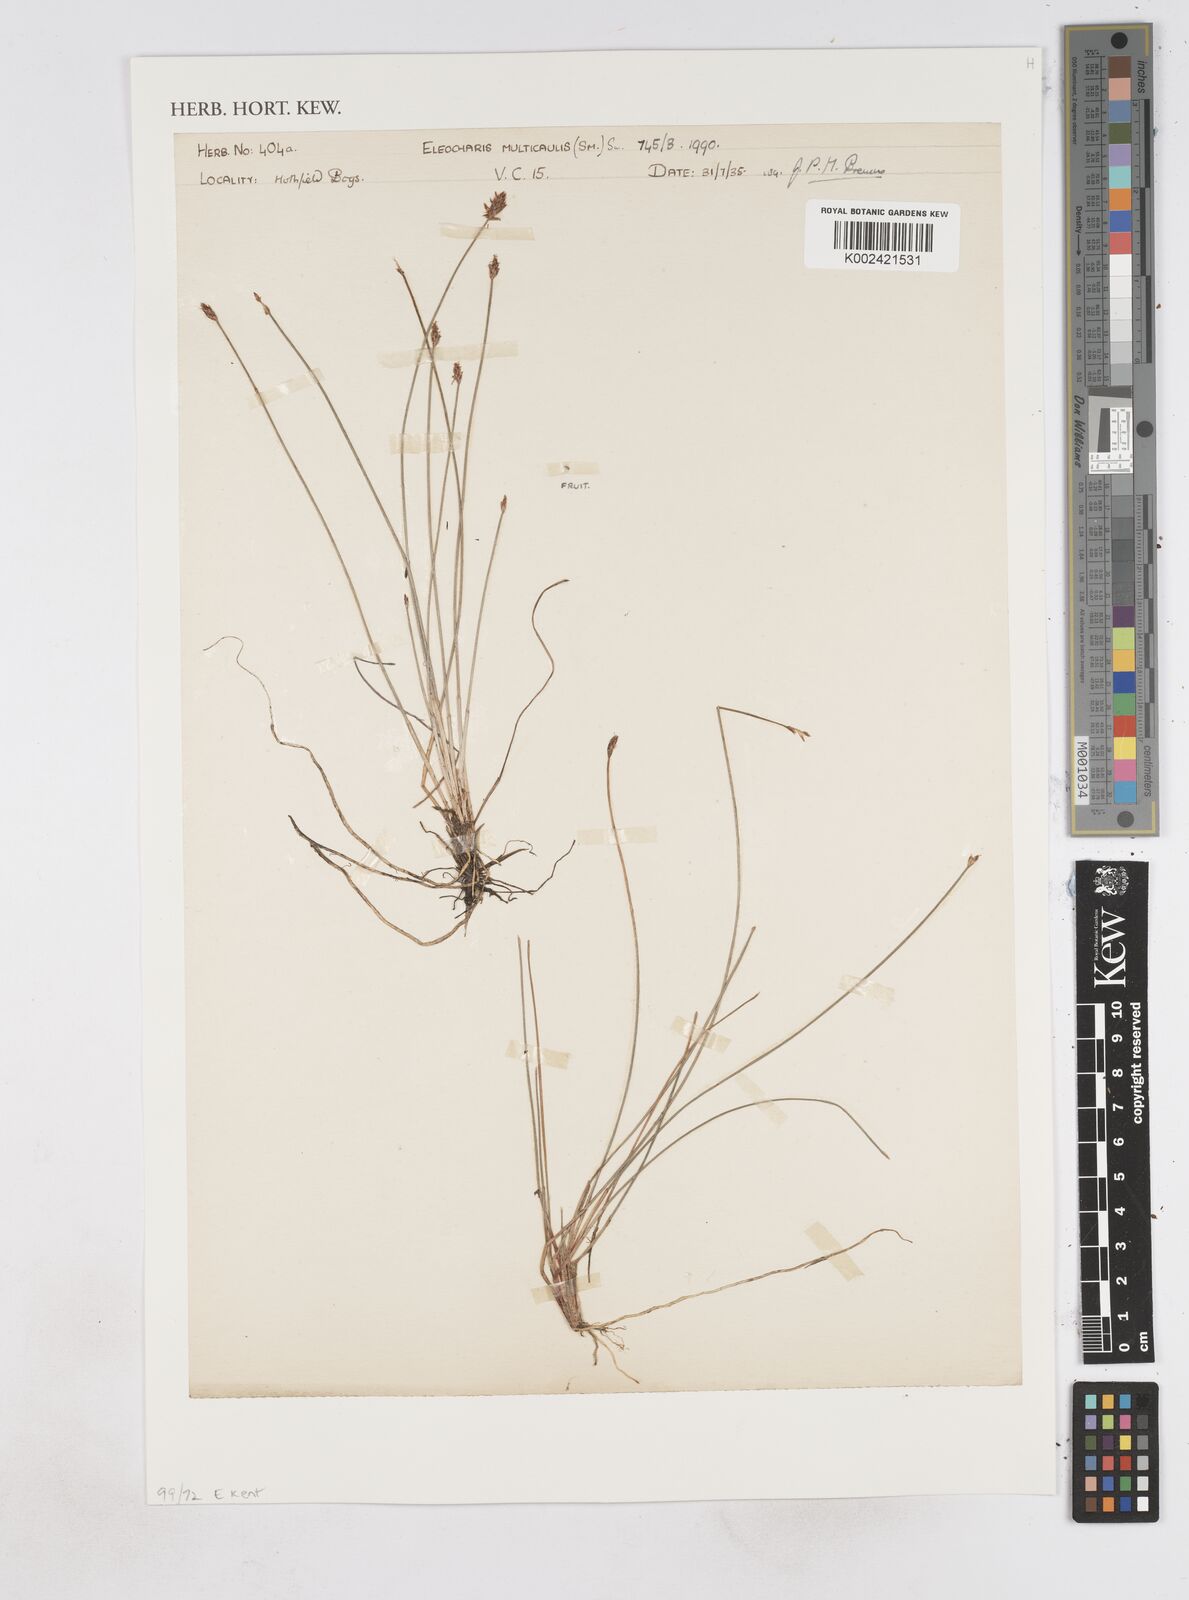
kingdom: Plantae
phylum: Tracheophyta
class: Liliopsida
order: Poales
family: Cyperaceae
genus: Eleocharis
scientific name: Eleocharis multicaulis
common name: Many-stalked spike-rush
